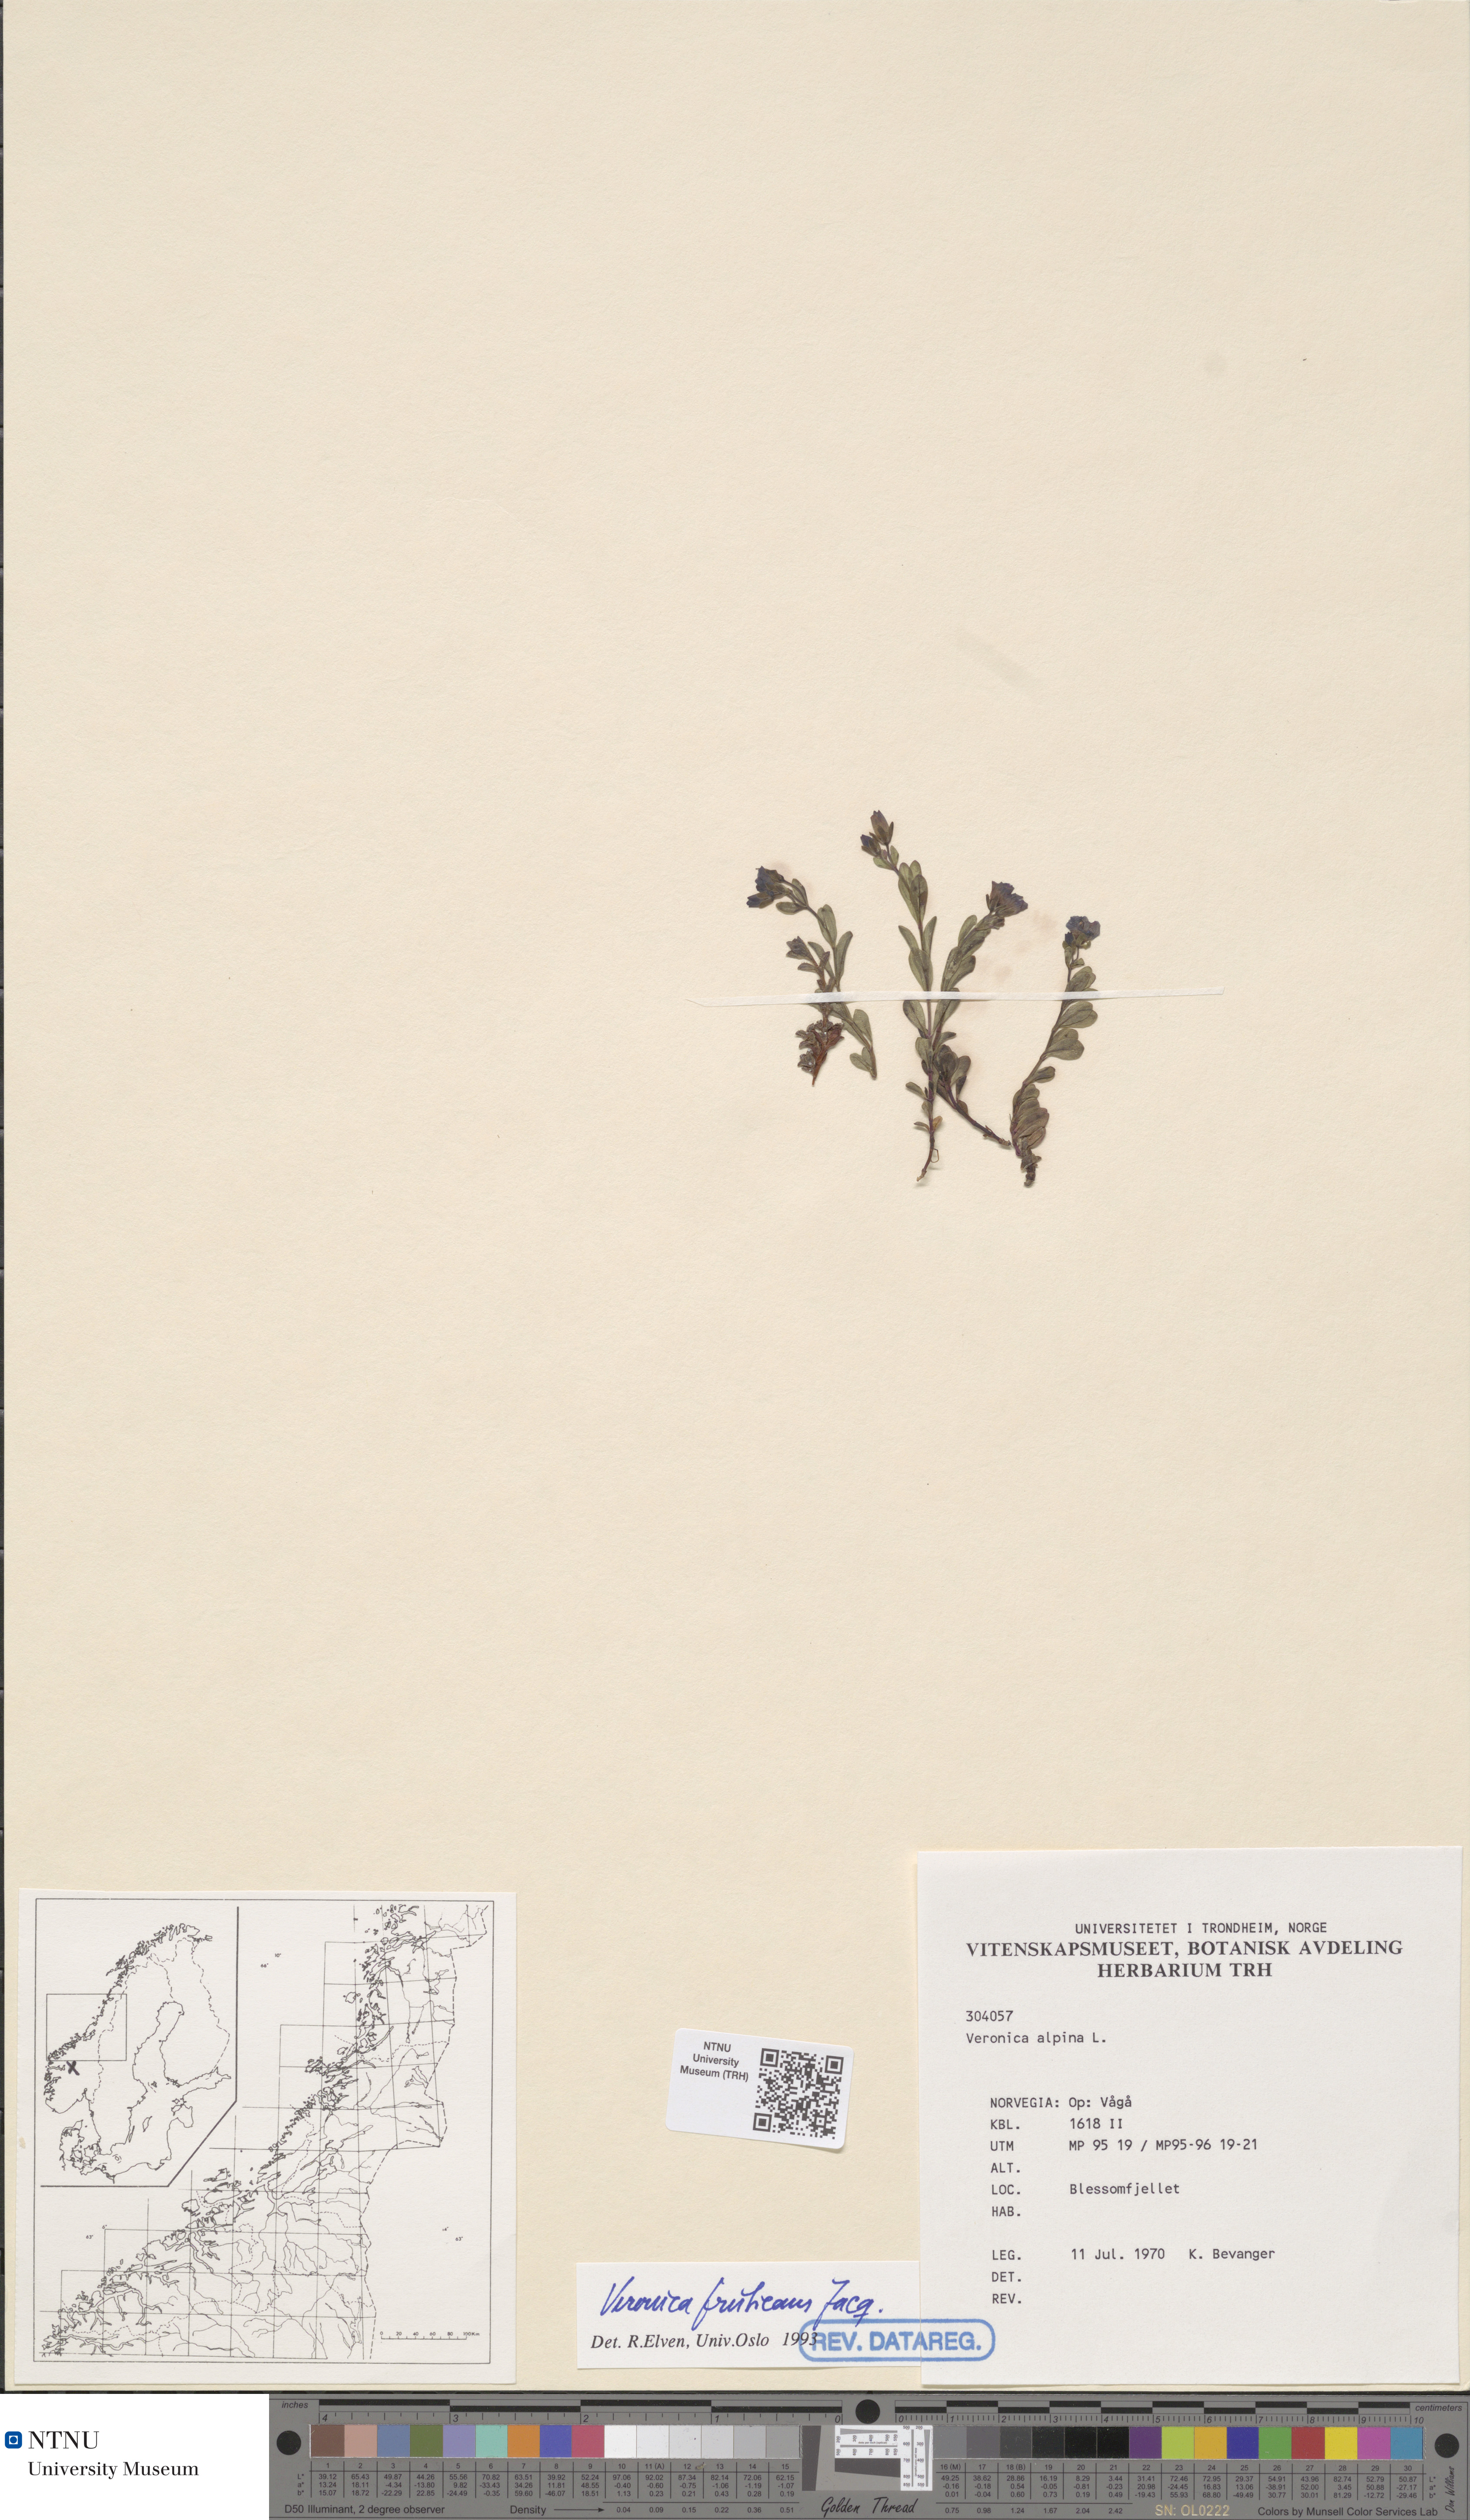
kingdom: Plantae
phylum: Tracheophyta
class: Magnoliopsida
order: Lamiales
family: Plantaginaceae
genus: Veronica
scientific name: Veronica fruticans
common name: Rock speedwell
